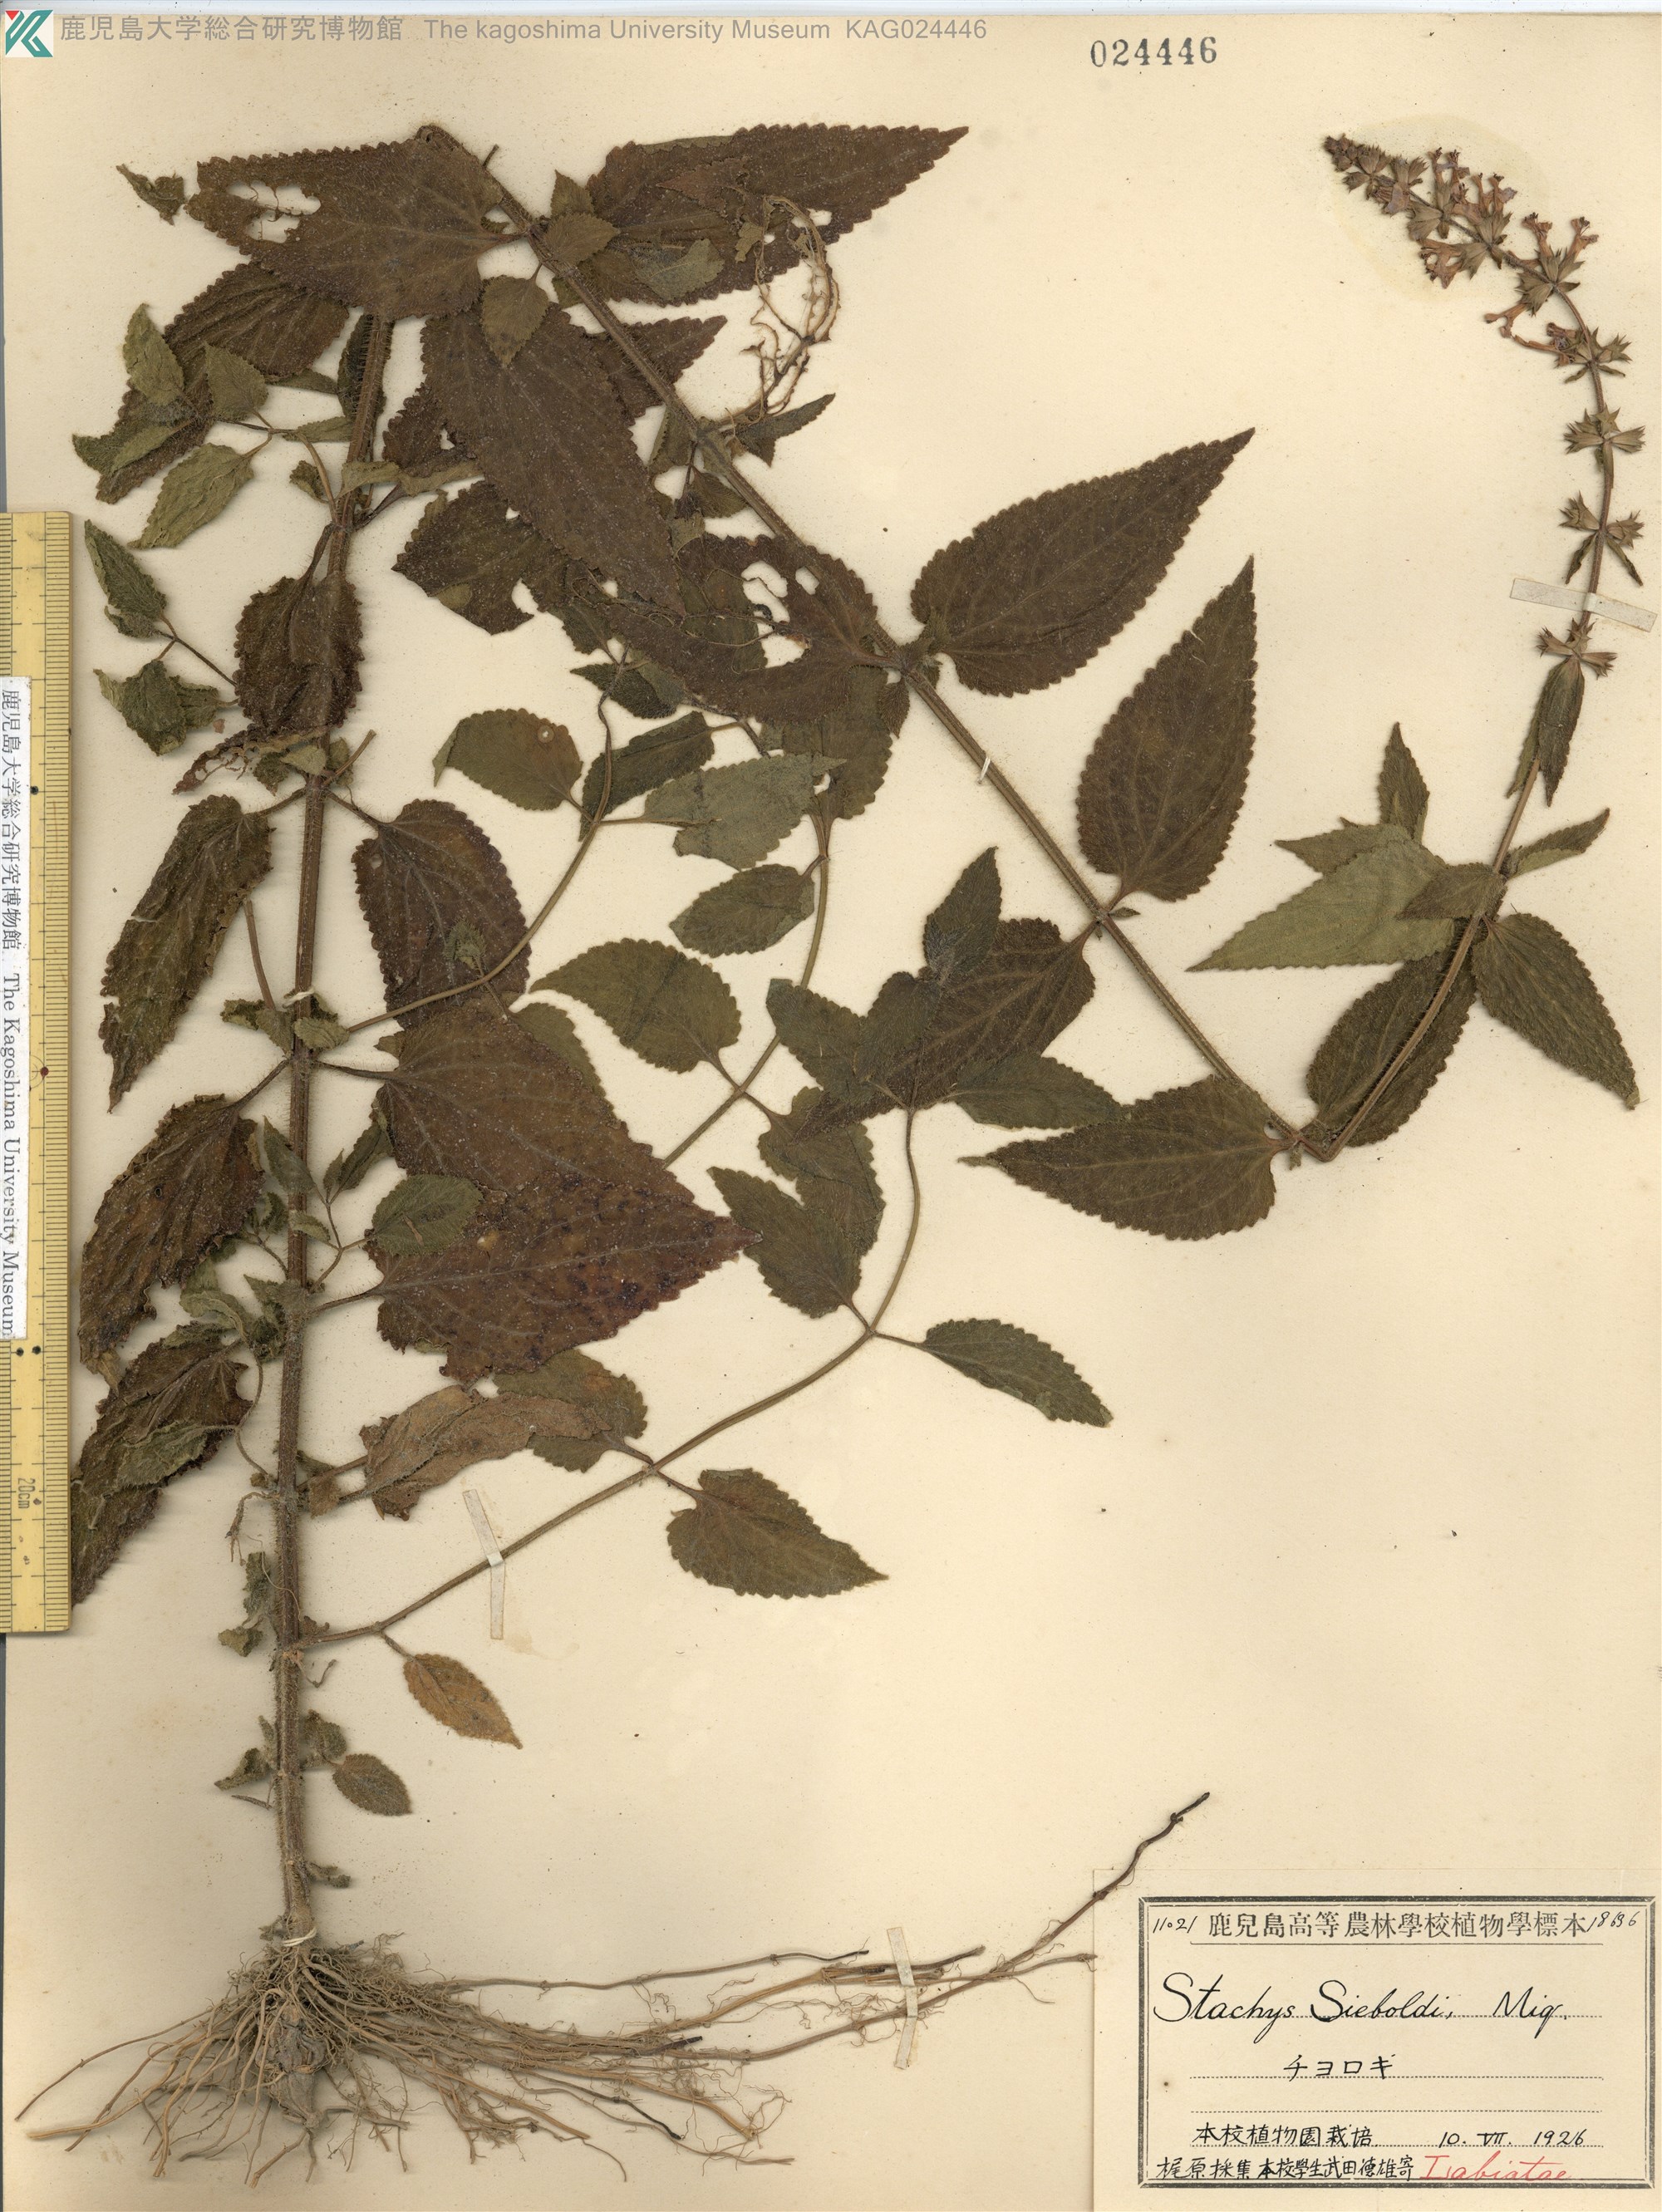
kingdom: Plantae
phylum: Tracheophyta
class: Magnoliopsida
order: Lamiales
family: Lamiaceae
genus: Stachys
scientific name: Stachys affinis
